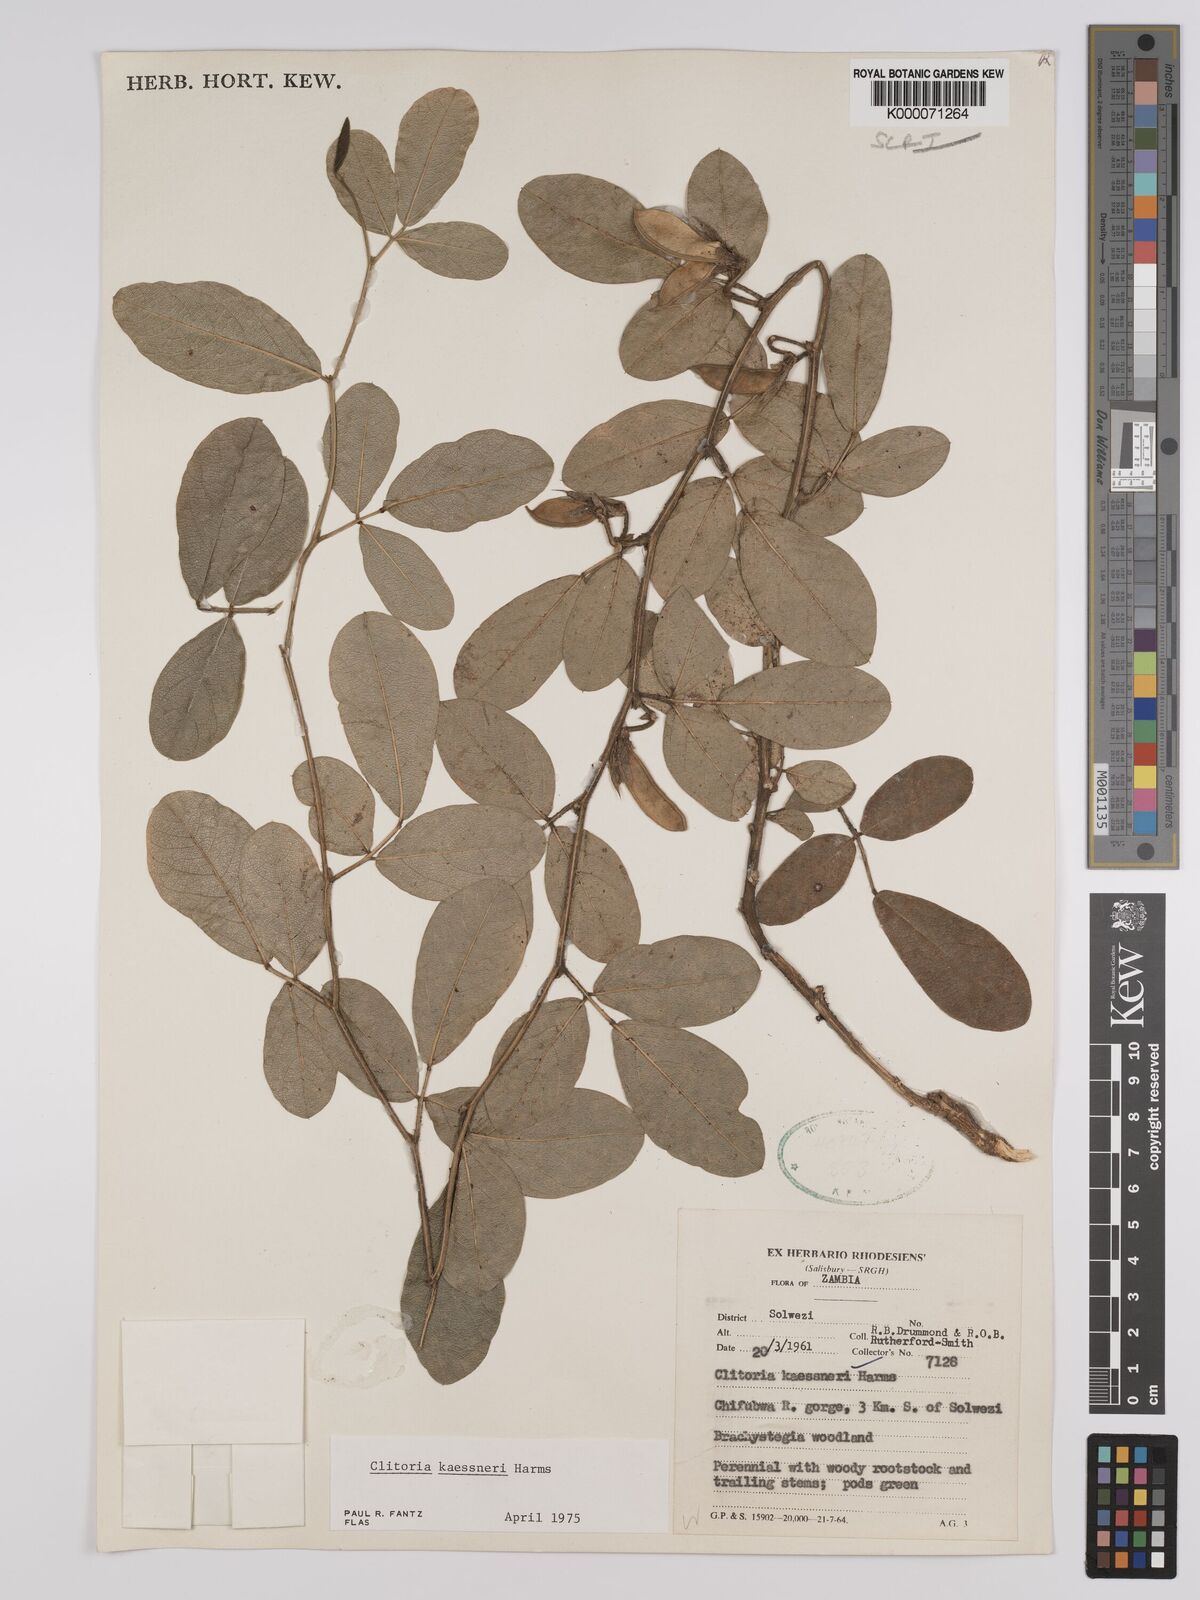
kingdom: Plantae
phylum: Tracheophyta
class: Magnoliopsida
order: Fabales
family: Fabaceae
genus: Clitoria
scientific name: Clitoria kaessneri
